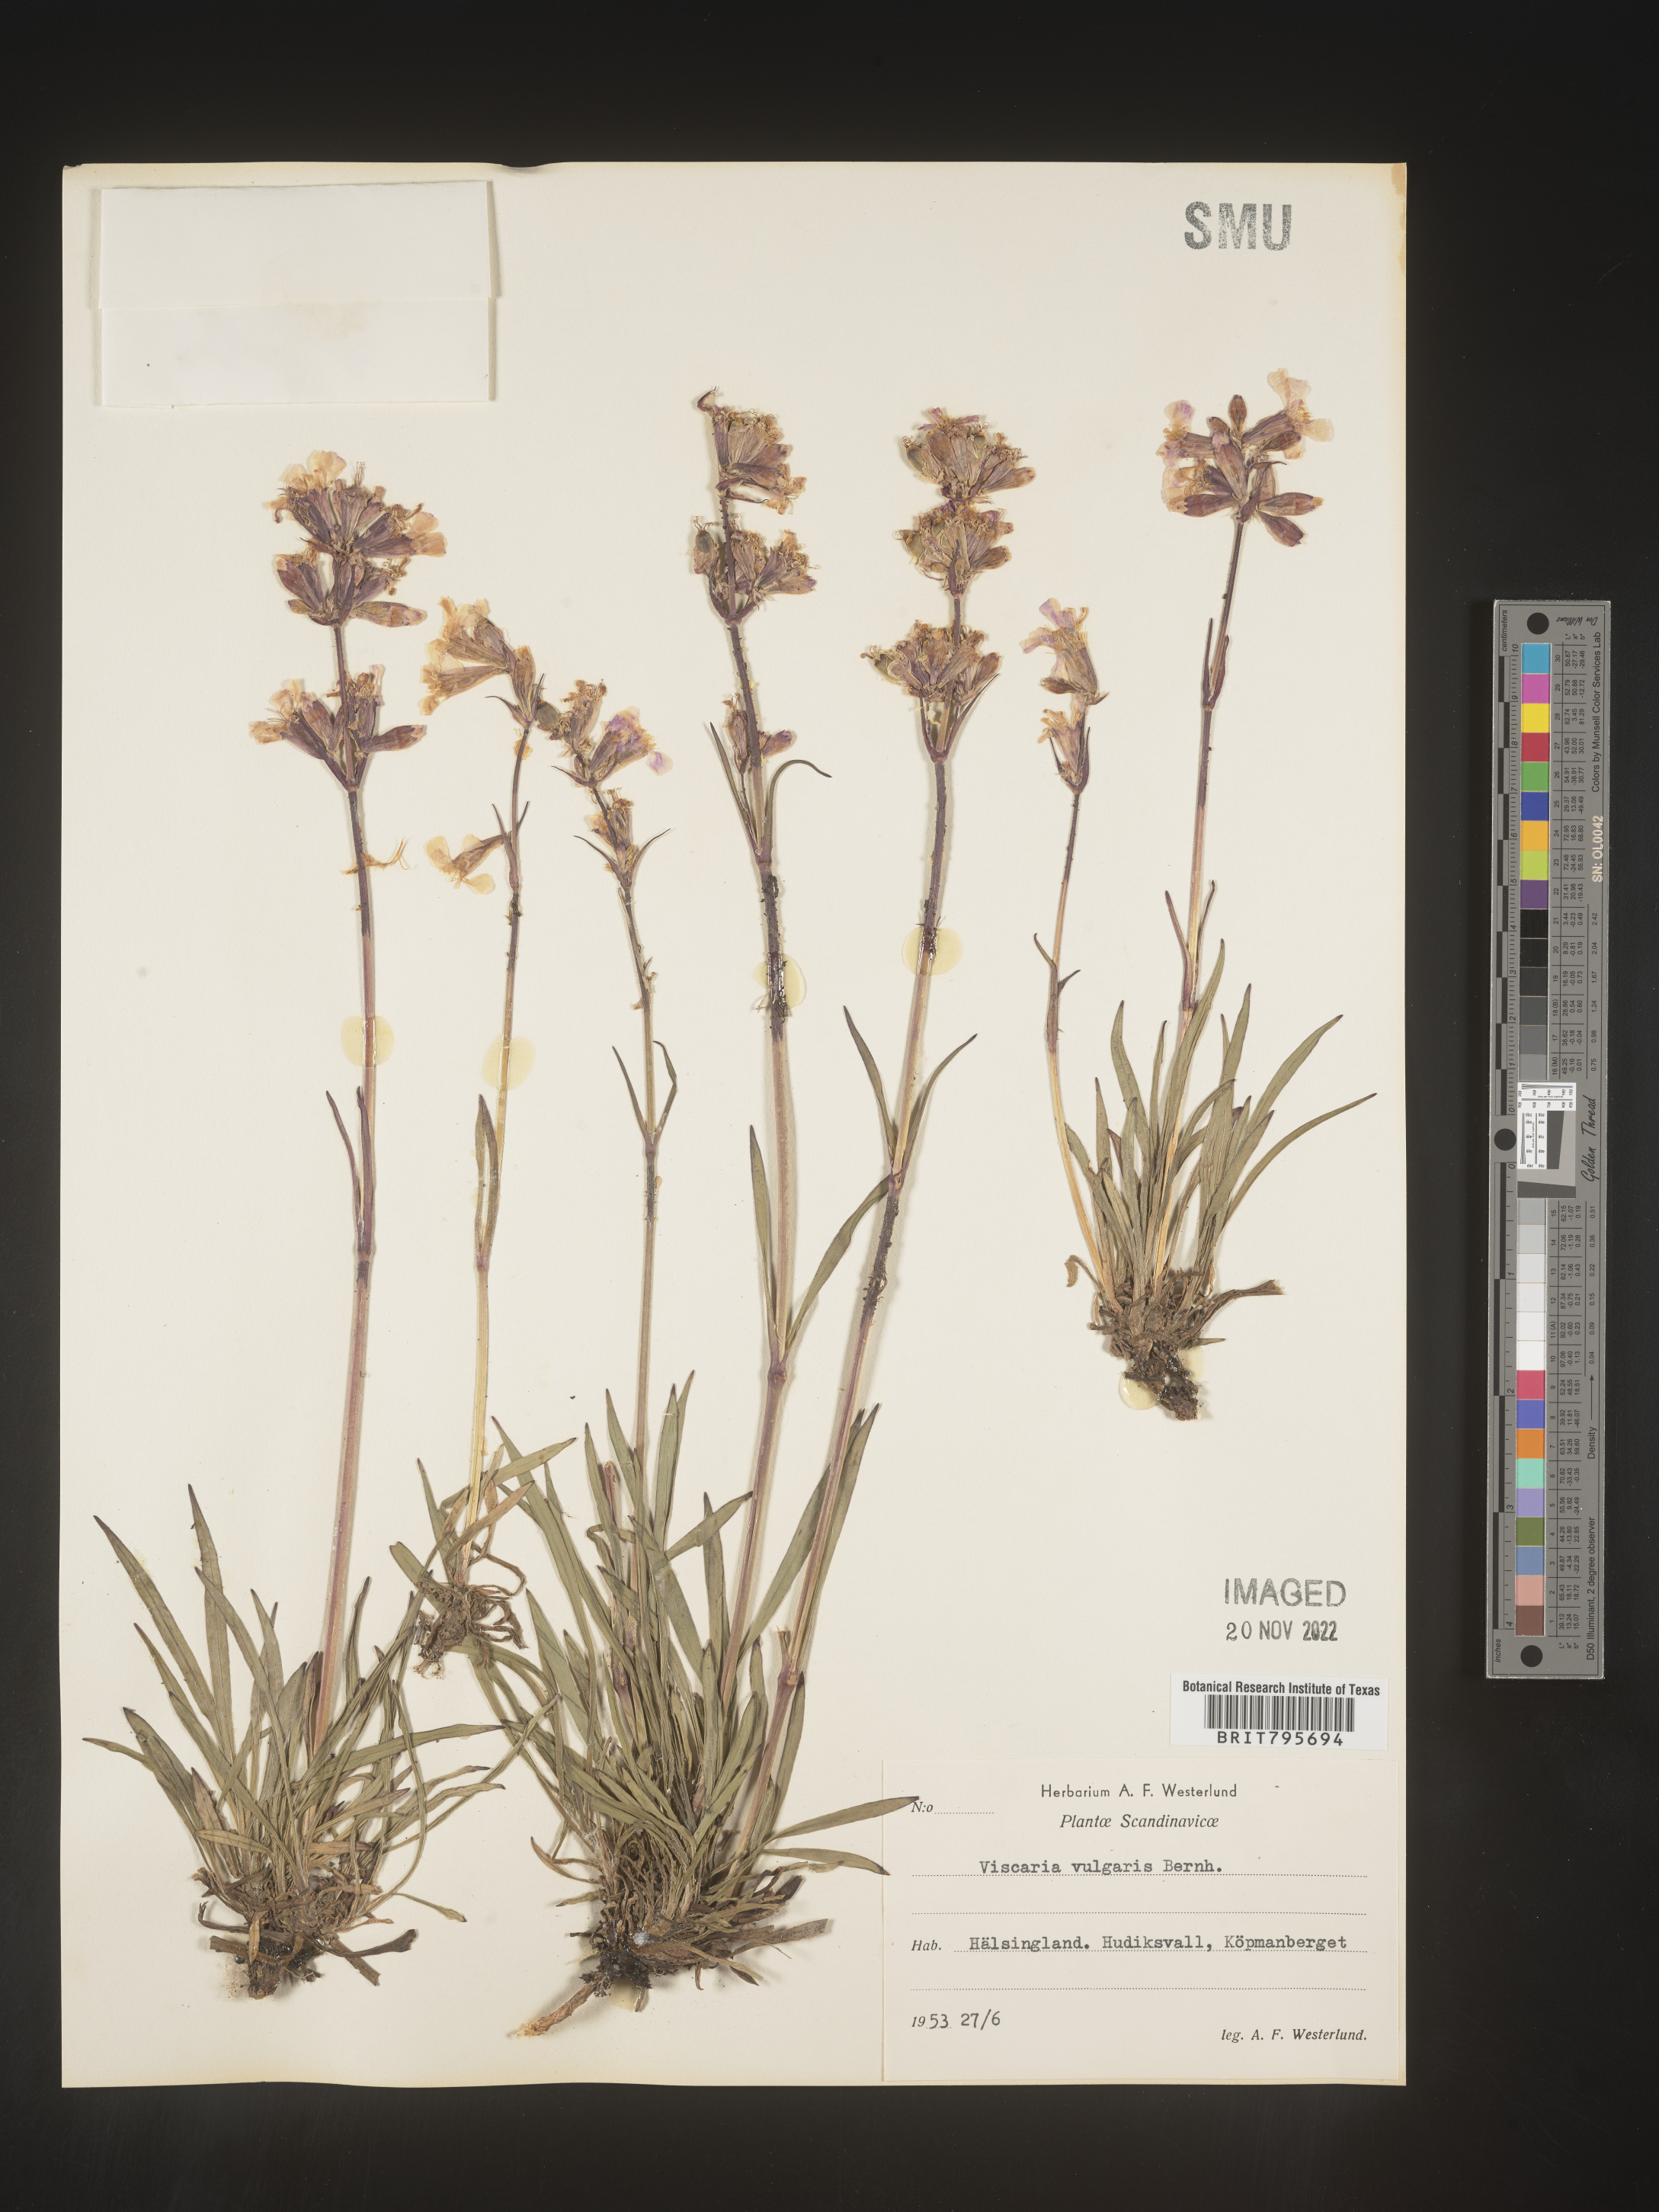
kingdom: Plantae
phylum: Tracheophyta
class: Magnoliopsida
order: Caryophyllales
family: Caryophyllaceae
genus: Viscaria
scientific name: Viscaria
